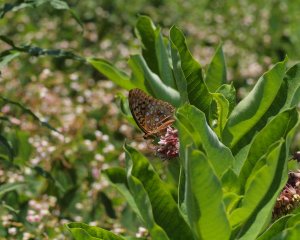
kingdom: Animalia
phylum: Arthropoda
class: Insecta
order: Lepidoptera
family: Nymphalidae
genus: Speyeria
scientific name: Speyeria cybele
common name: Great Spangled Fritillary
